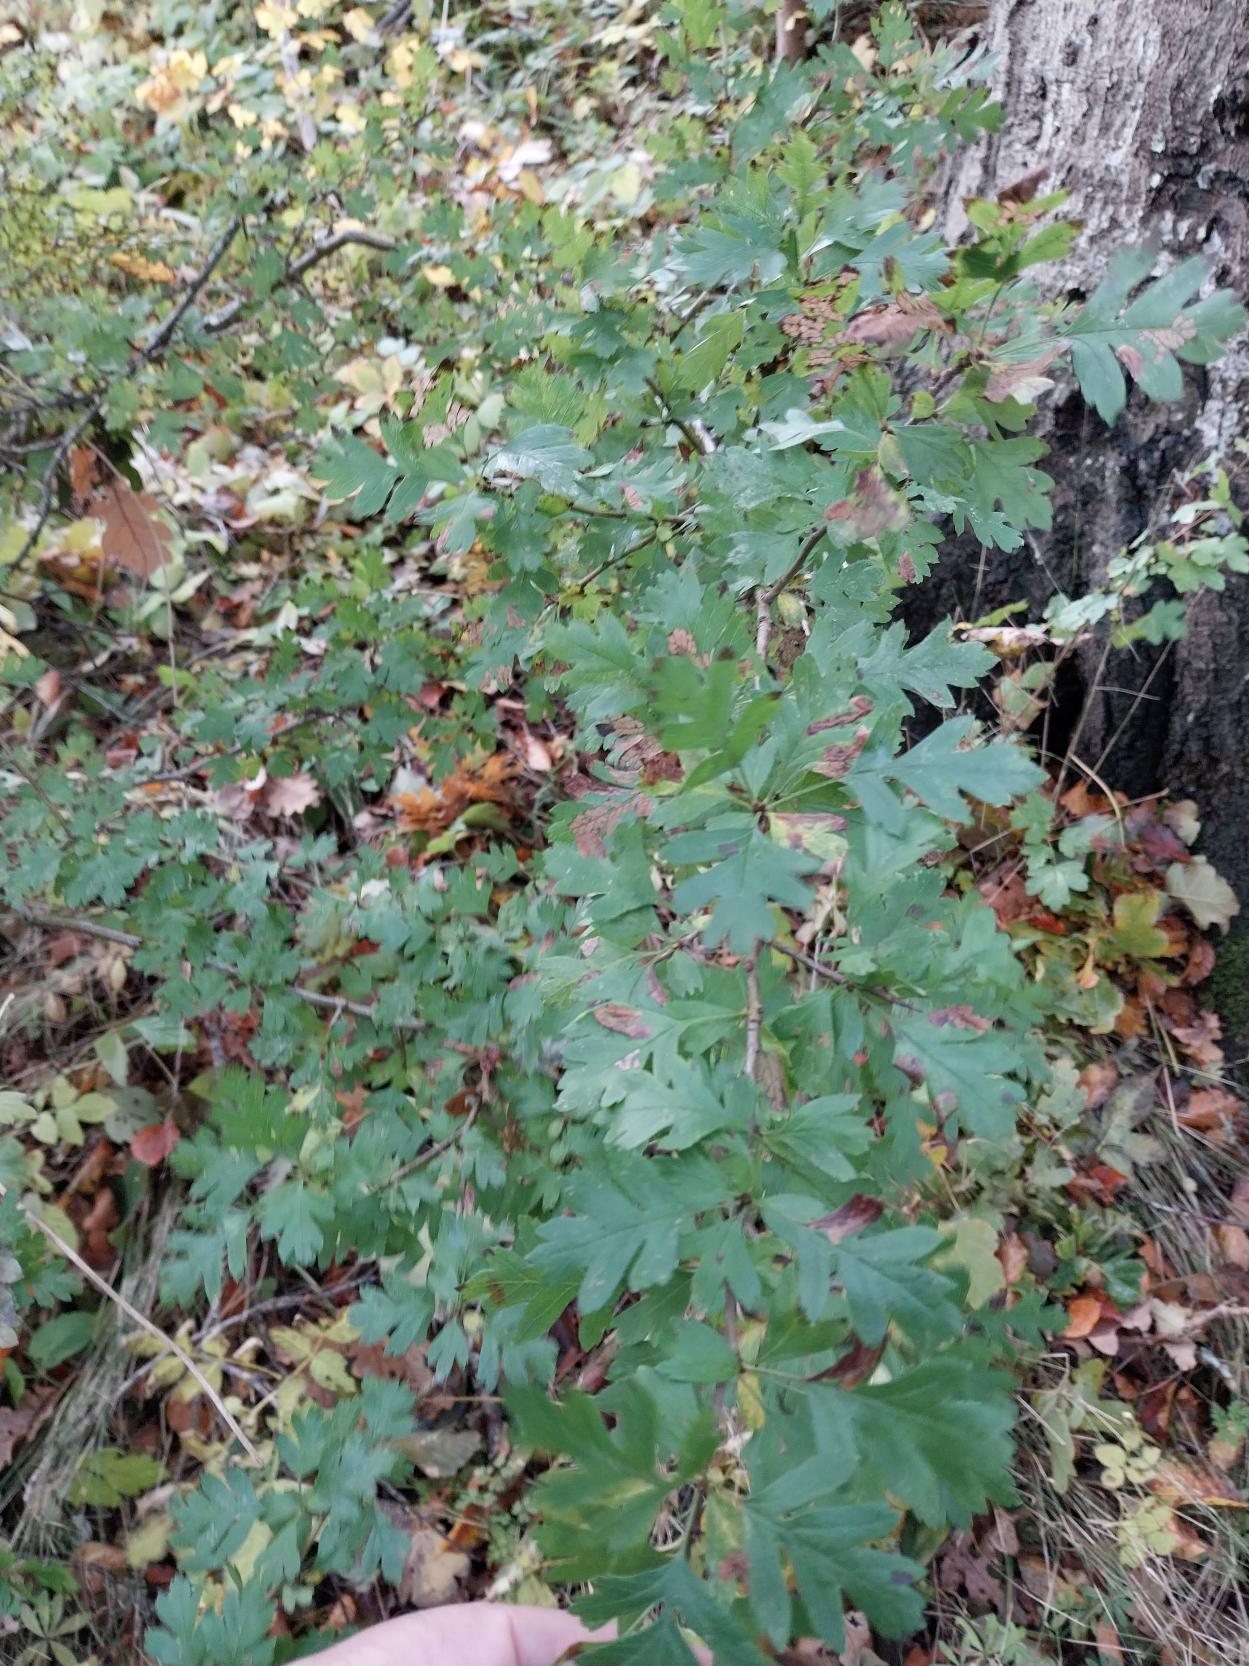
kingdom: Plantae
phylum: Tracheophyta
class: Magnoliopsida
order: Rosales
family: Rosaceae
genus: Crataegus
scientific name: Crataegus monogyna
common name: Engriflet hvidtjørn
